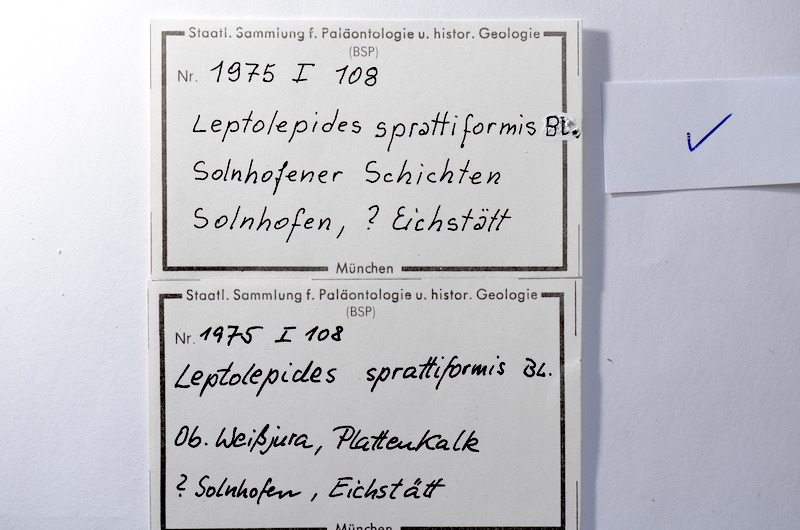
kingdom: Animalia
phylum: Chordata
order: Salmoniformes
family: Orthogonikleithridae
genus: Leptolepides
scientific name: Leptolepides sprattiformis
